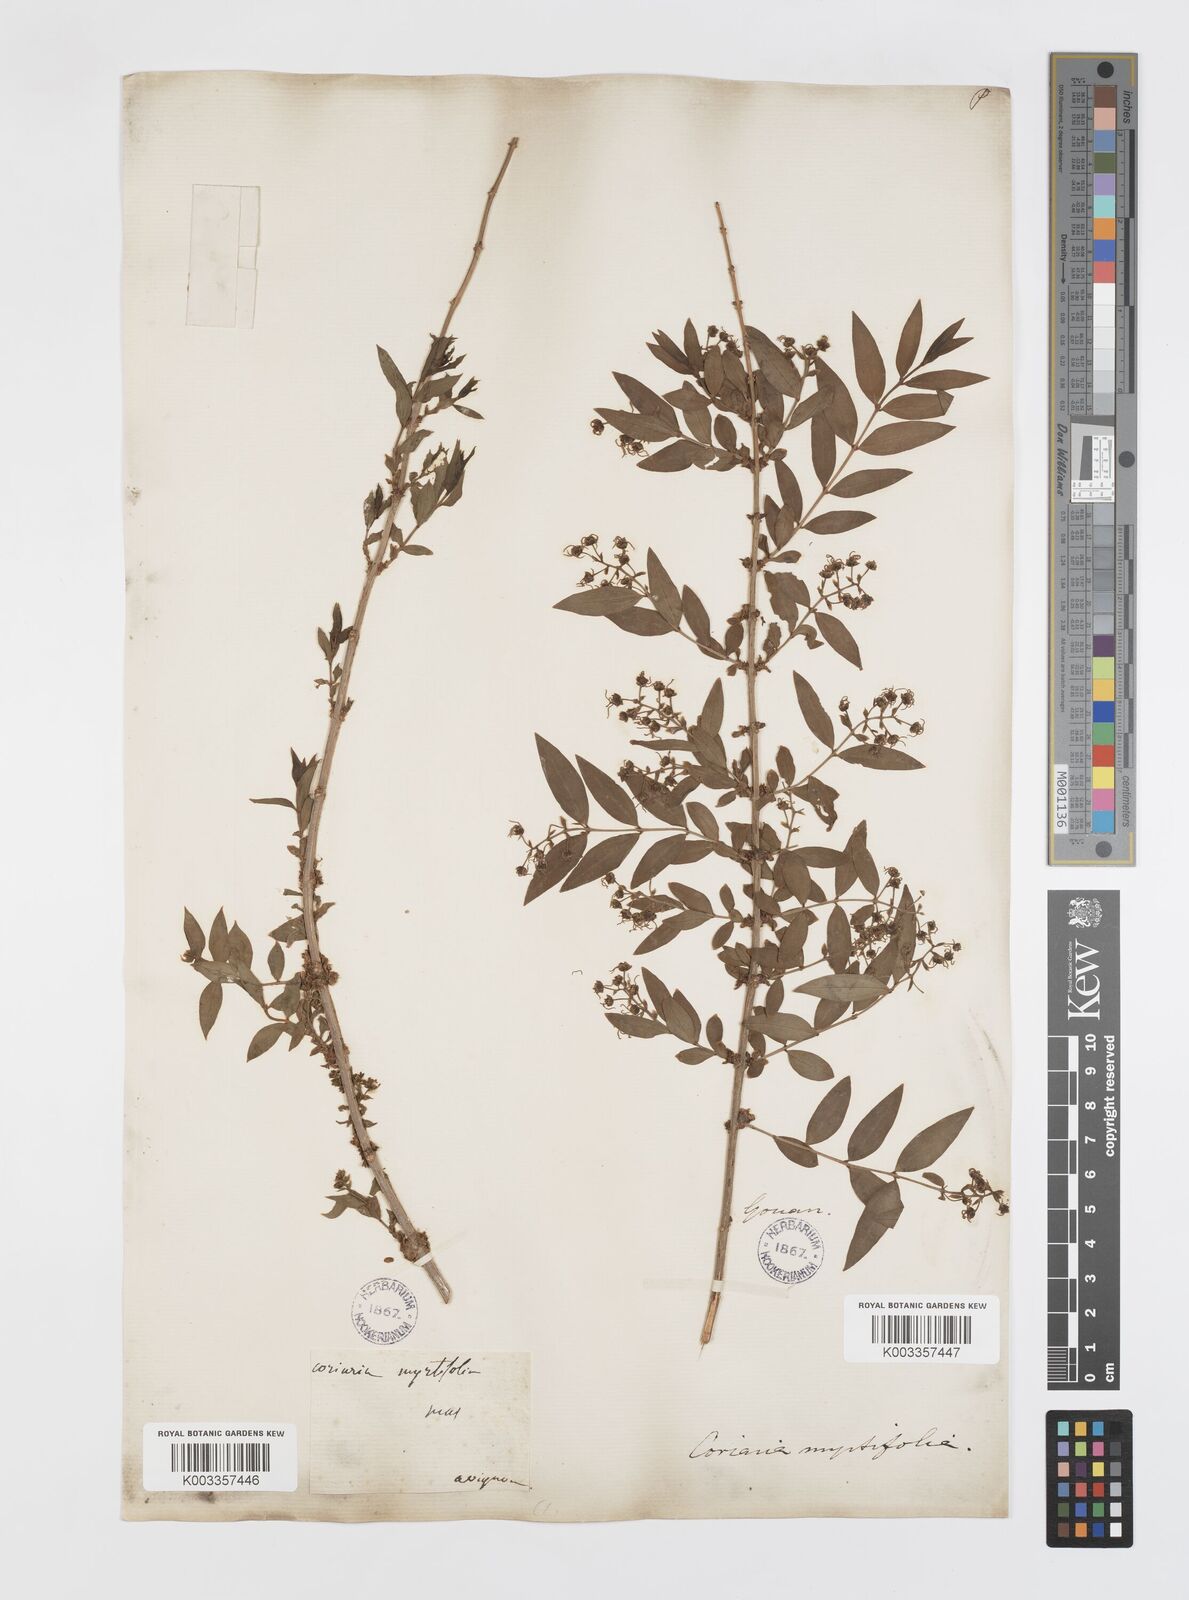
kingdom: Plantae
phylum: Tracheophyta
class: Magnoliopsida
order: Cucurbitales
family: Coriariaceae
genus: Coriaria
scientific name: Coriaria myrtifolia
